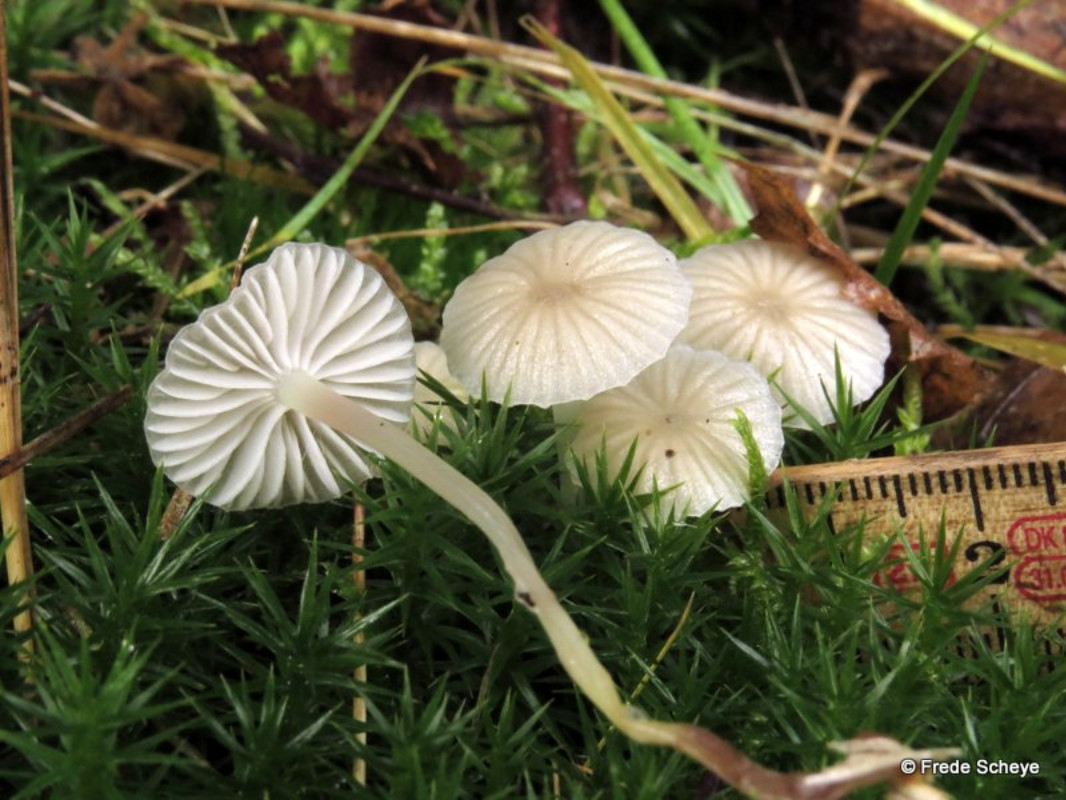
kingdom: Fungi
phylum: Basidiomycota
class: Agaricomycetes
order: Agaricales
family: Mycenaceae
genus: Mycena
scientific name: Mycena epipterygia
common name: gulstokket huesvamp
